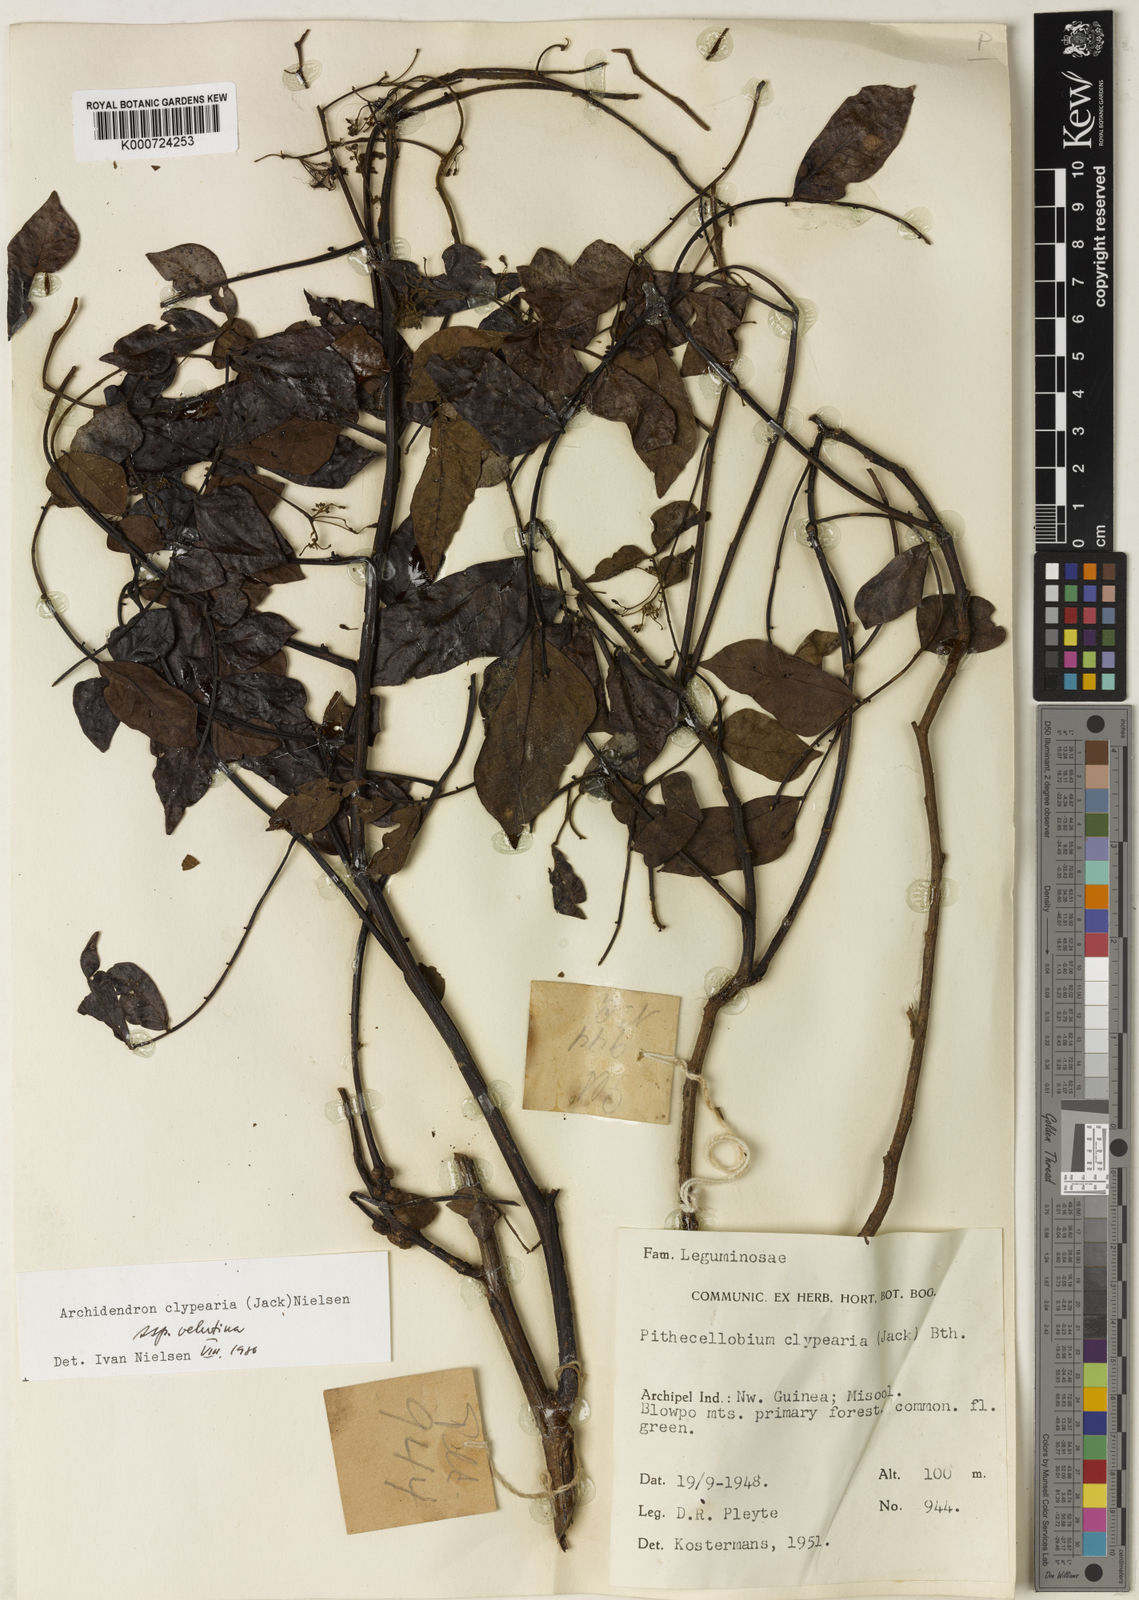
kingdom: Plantae
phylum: Tracheophyta
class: Magnoliopsida
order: Fabales
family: Fabaceae
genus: Archidendron
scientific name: Archidendron clypearia
